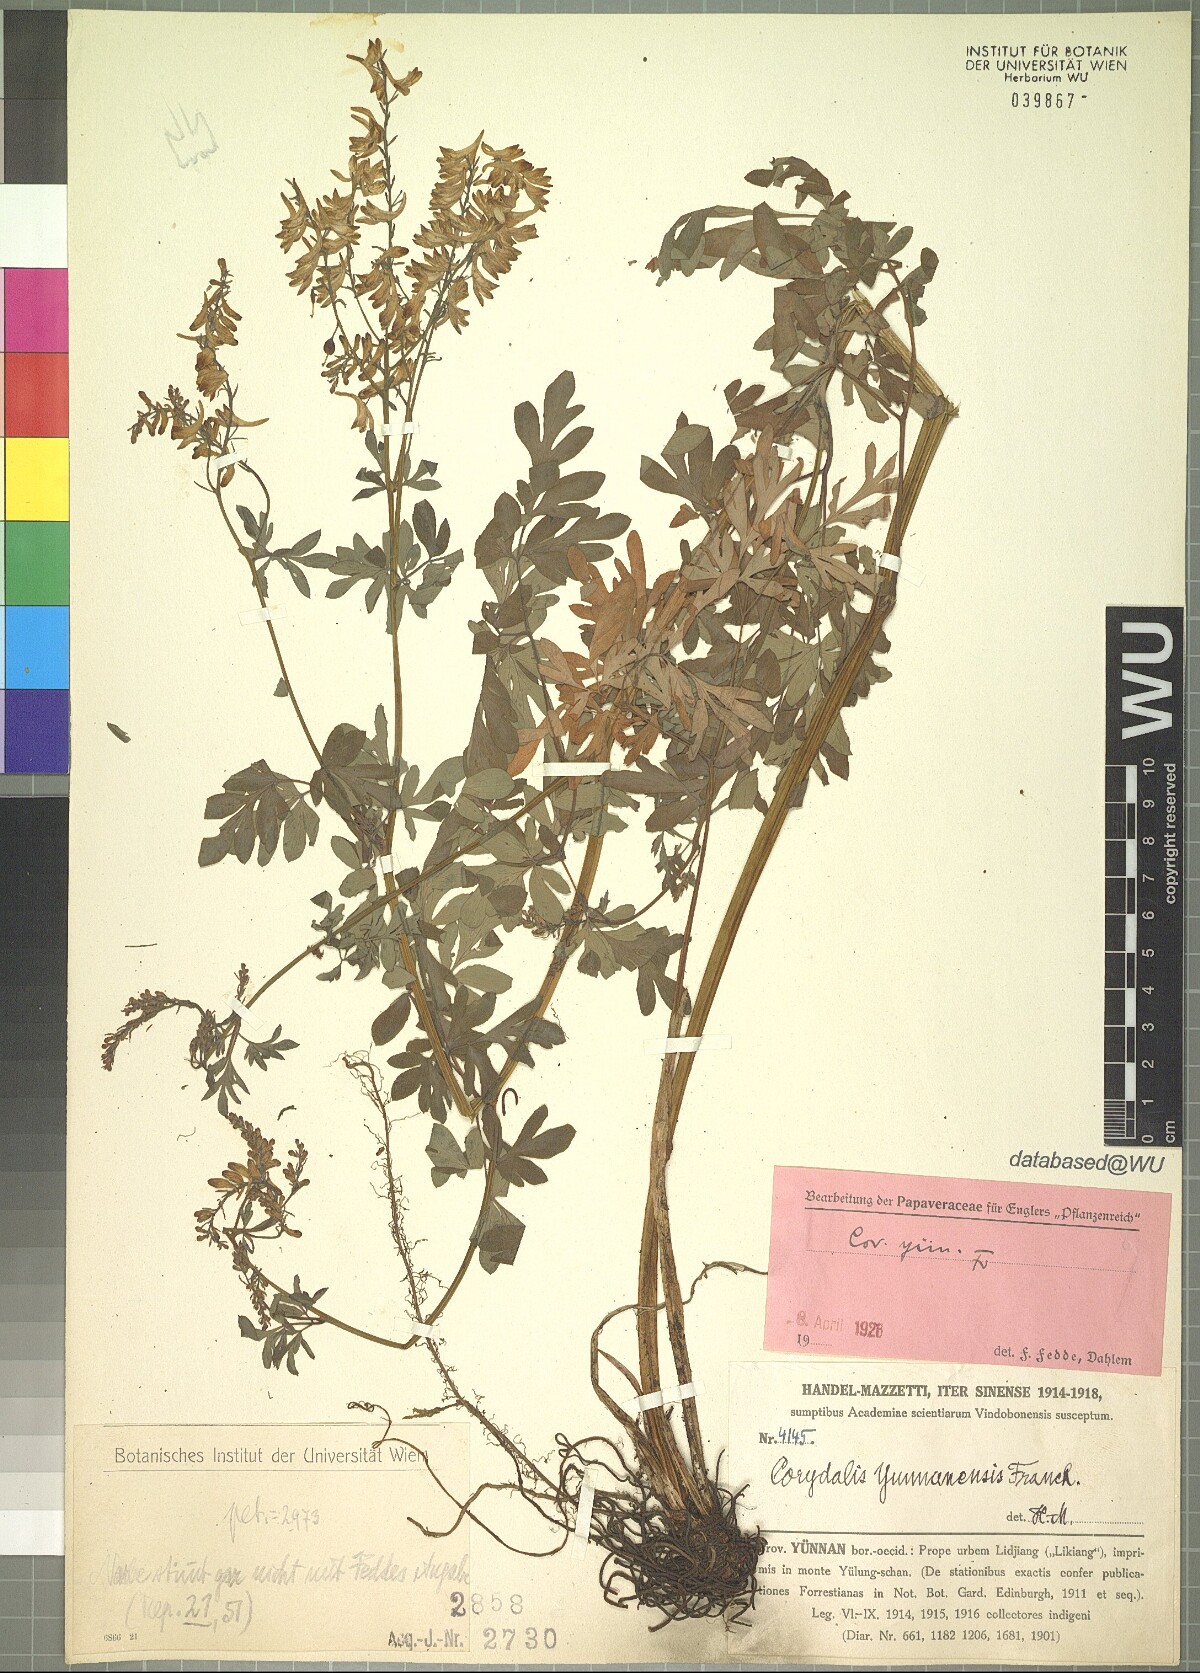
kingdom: Plantae
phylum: Tracheophyta
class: Magnoliopsida
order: Ranunculales
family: Papaveraceae
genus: Corydalis
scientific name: Corydalis yunnanensis
